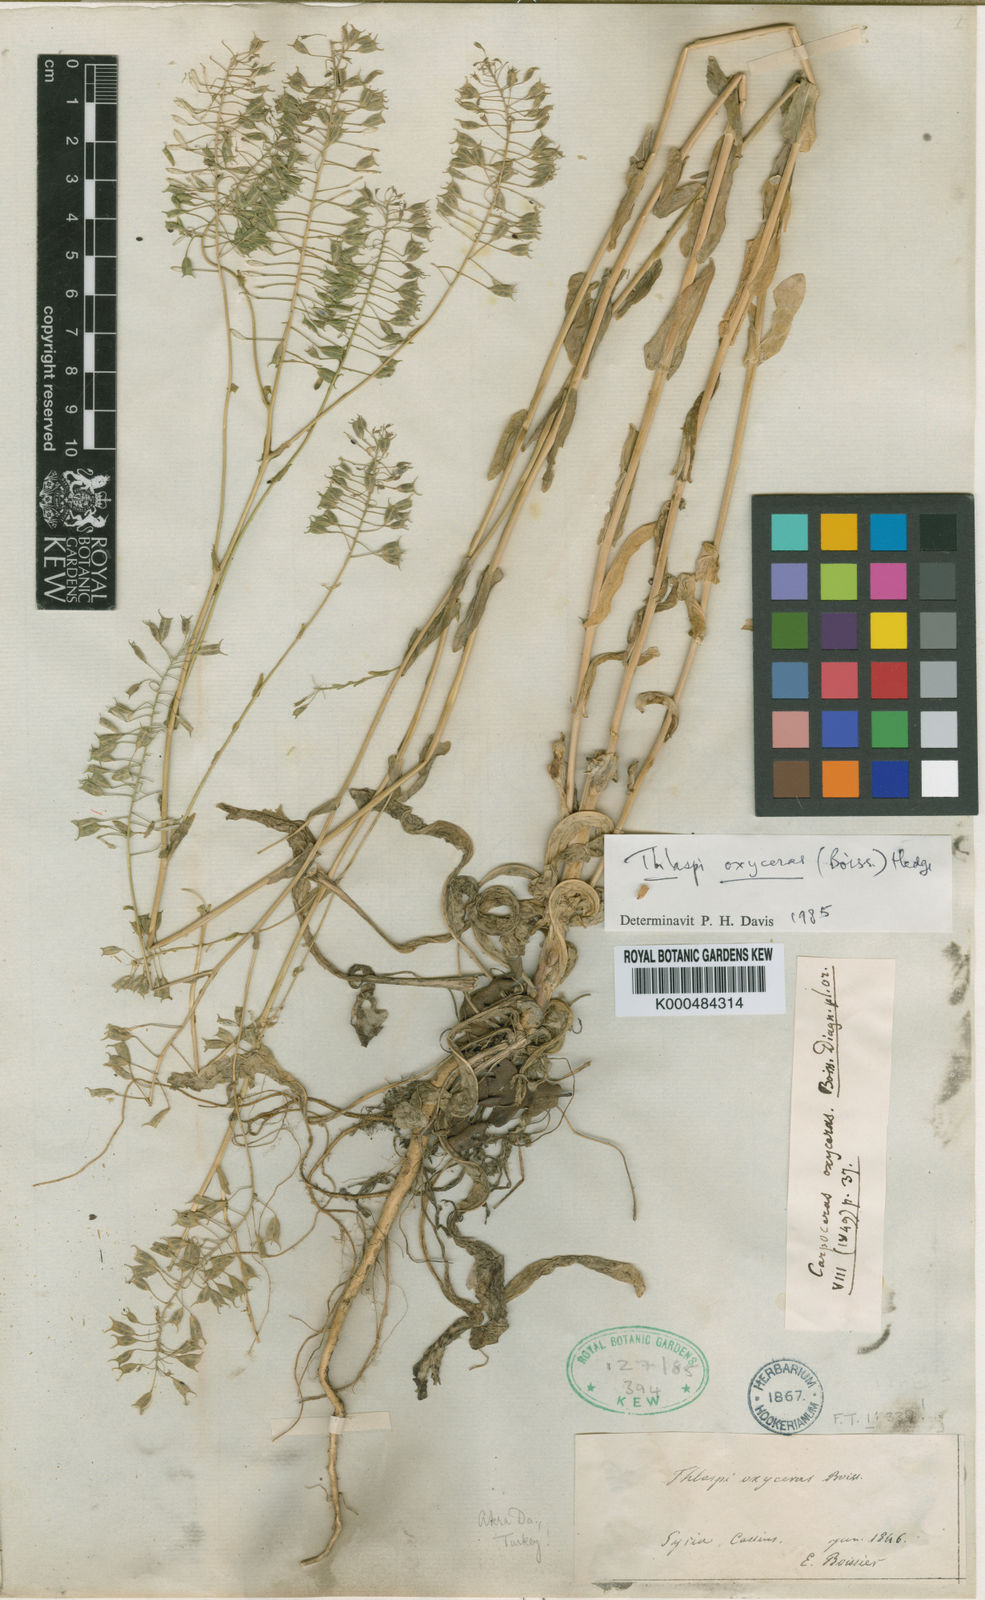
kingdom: Plantae
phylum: Tracheophyta
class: Magnoliopsida
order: Brassicales
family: Brassicaceae
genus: Noccaea
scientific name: Noccaea oxyceras
